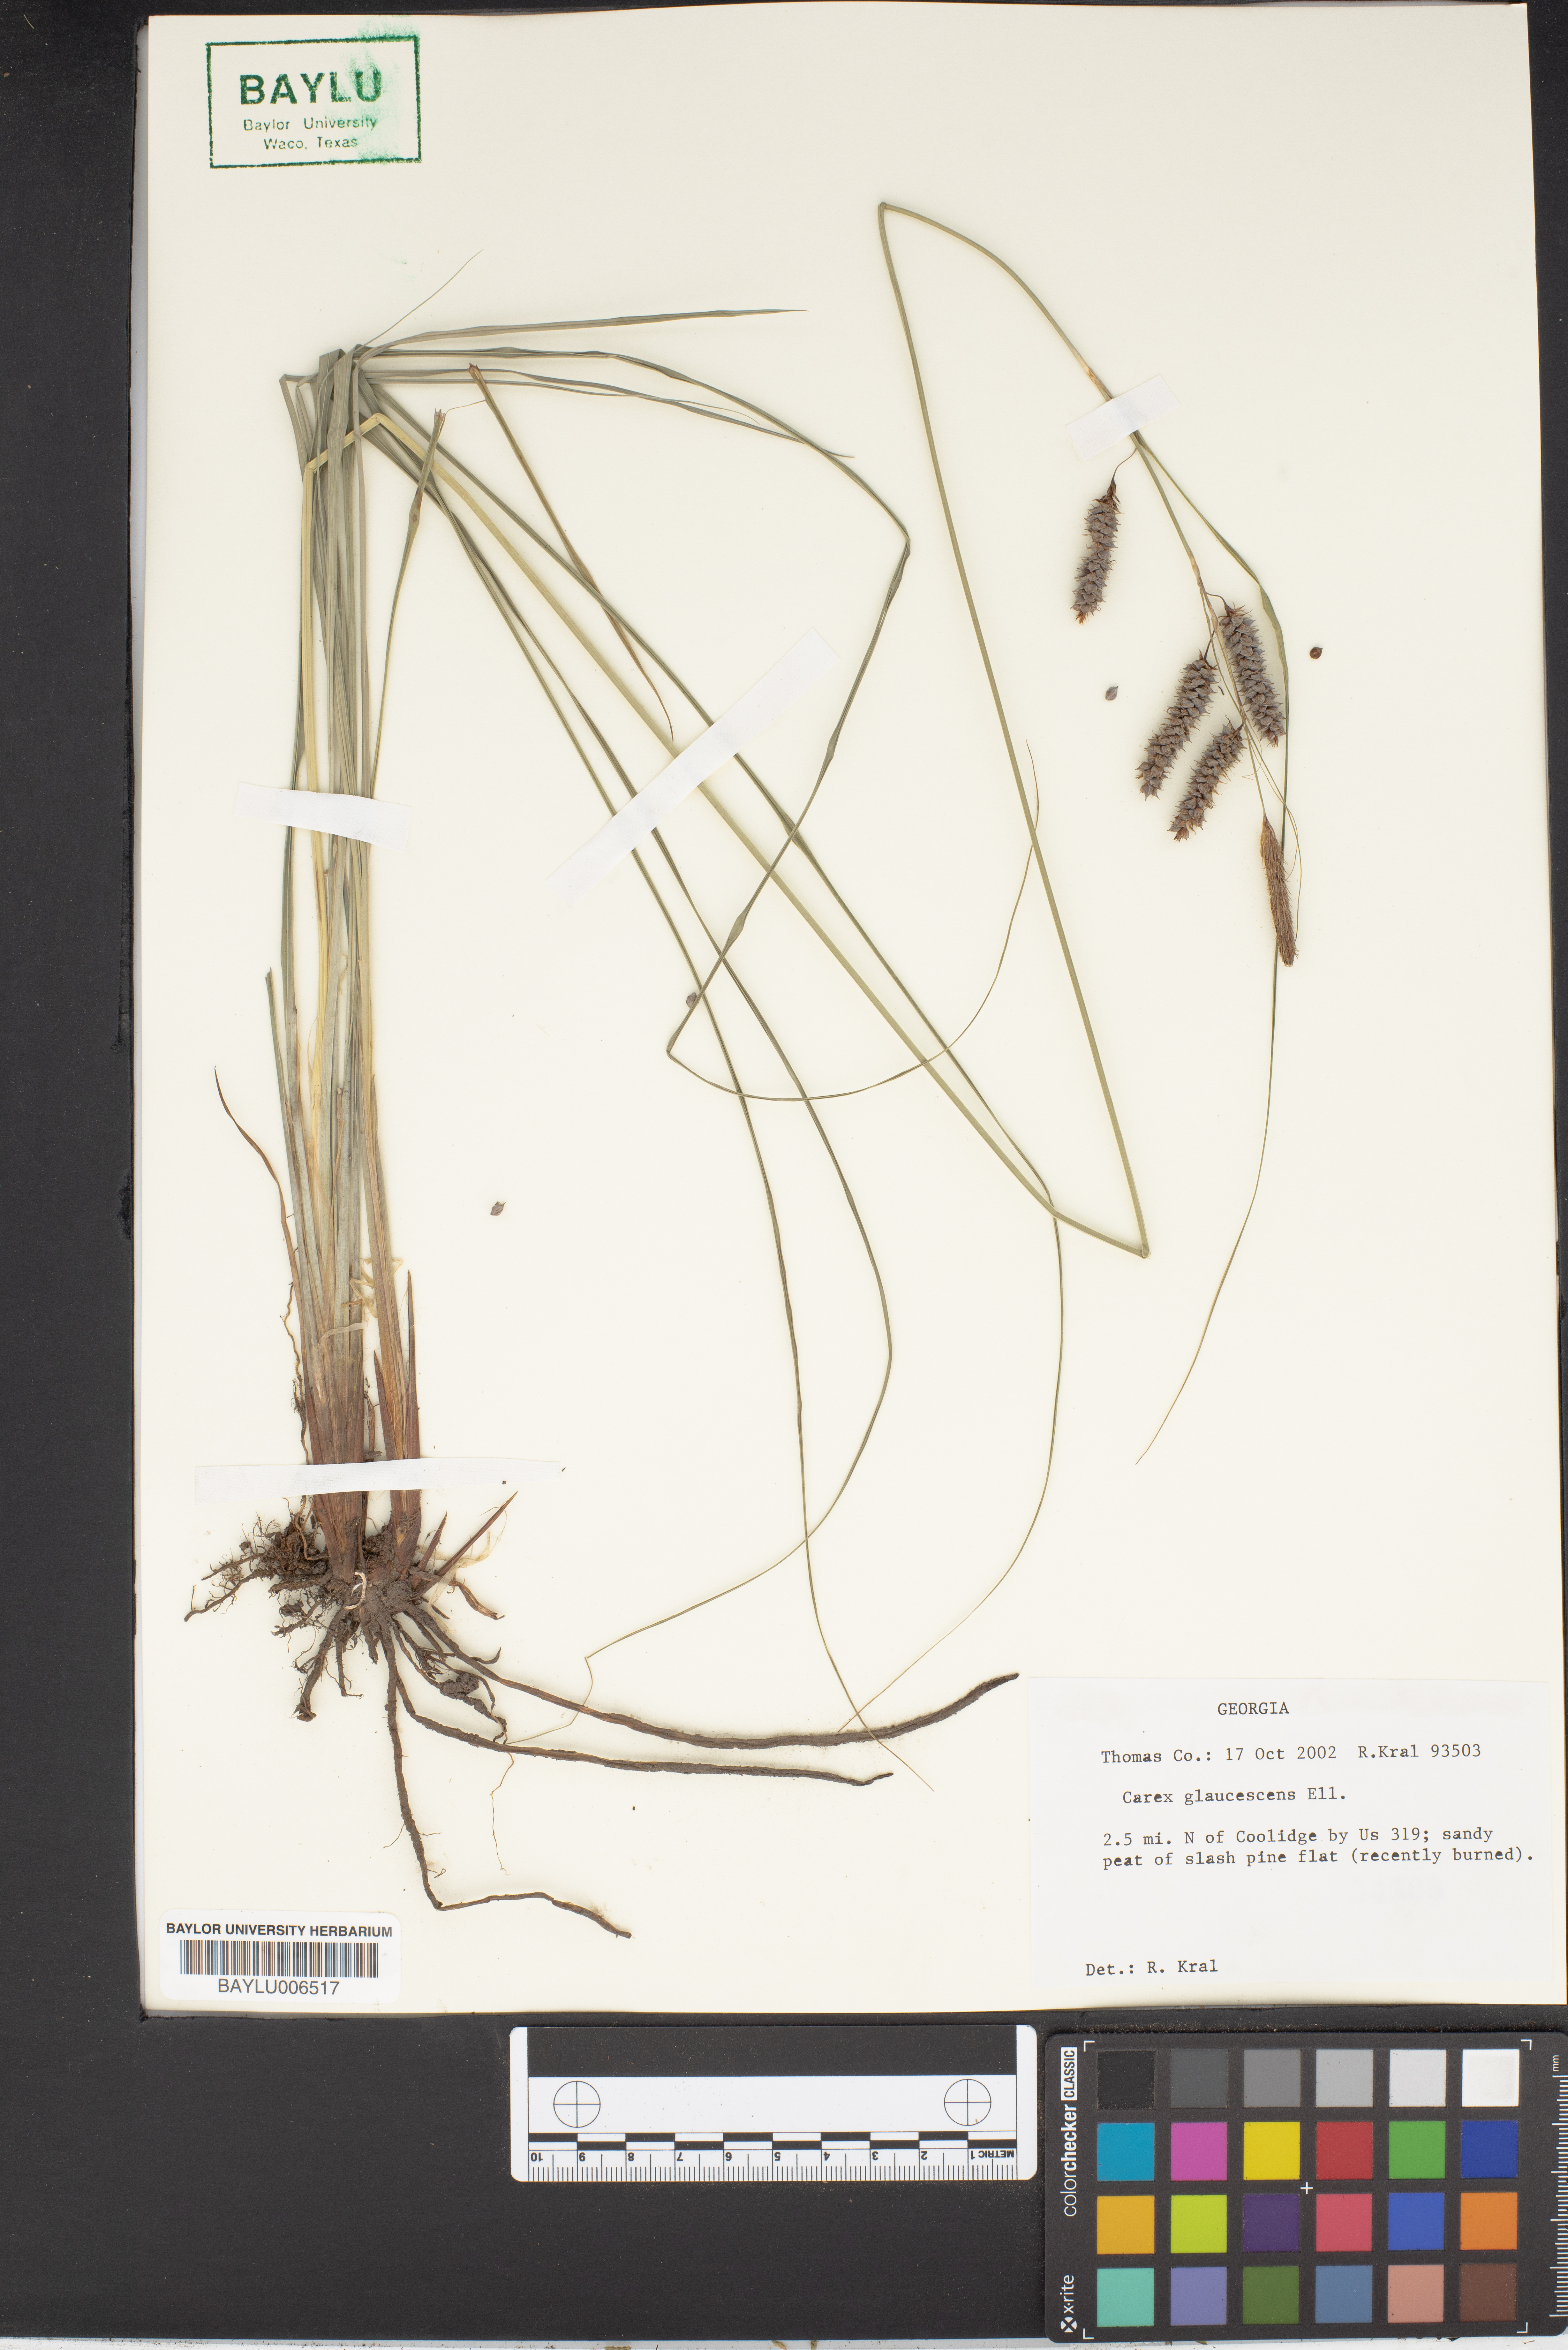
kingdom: Plantae
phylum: Tracheophyta
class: Liliopsida
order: Poales
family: Cyperaceae
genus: Carex
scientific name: Carex glaucescens
